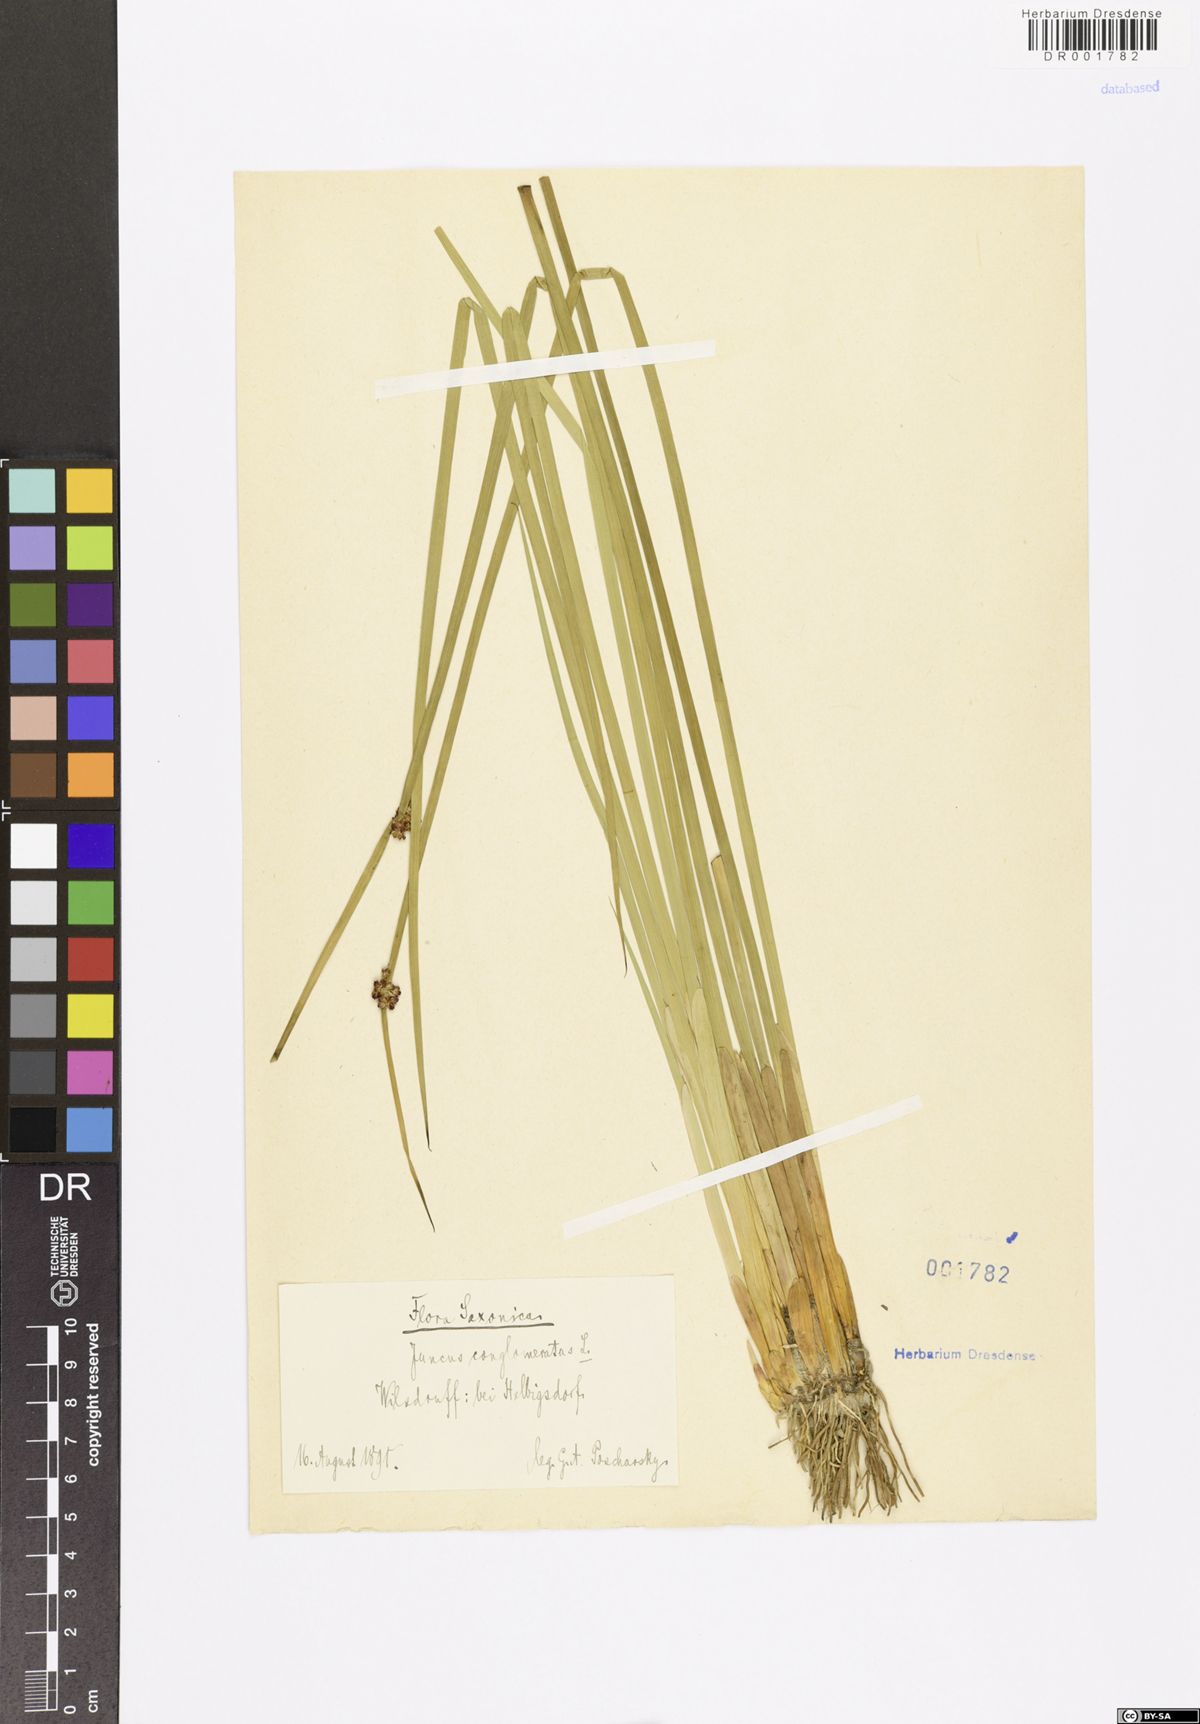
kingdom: Plantae
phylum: Tracheophyta
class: Liliopsida
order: Poales
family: Juncaceae
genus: Juncus
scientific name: Juncus conglomeratus
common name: Compact rush
